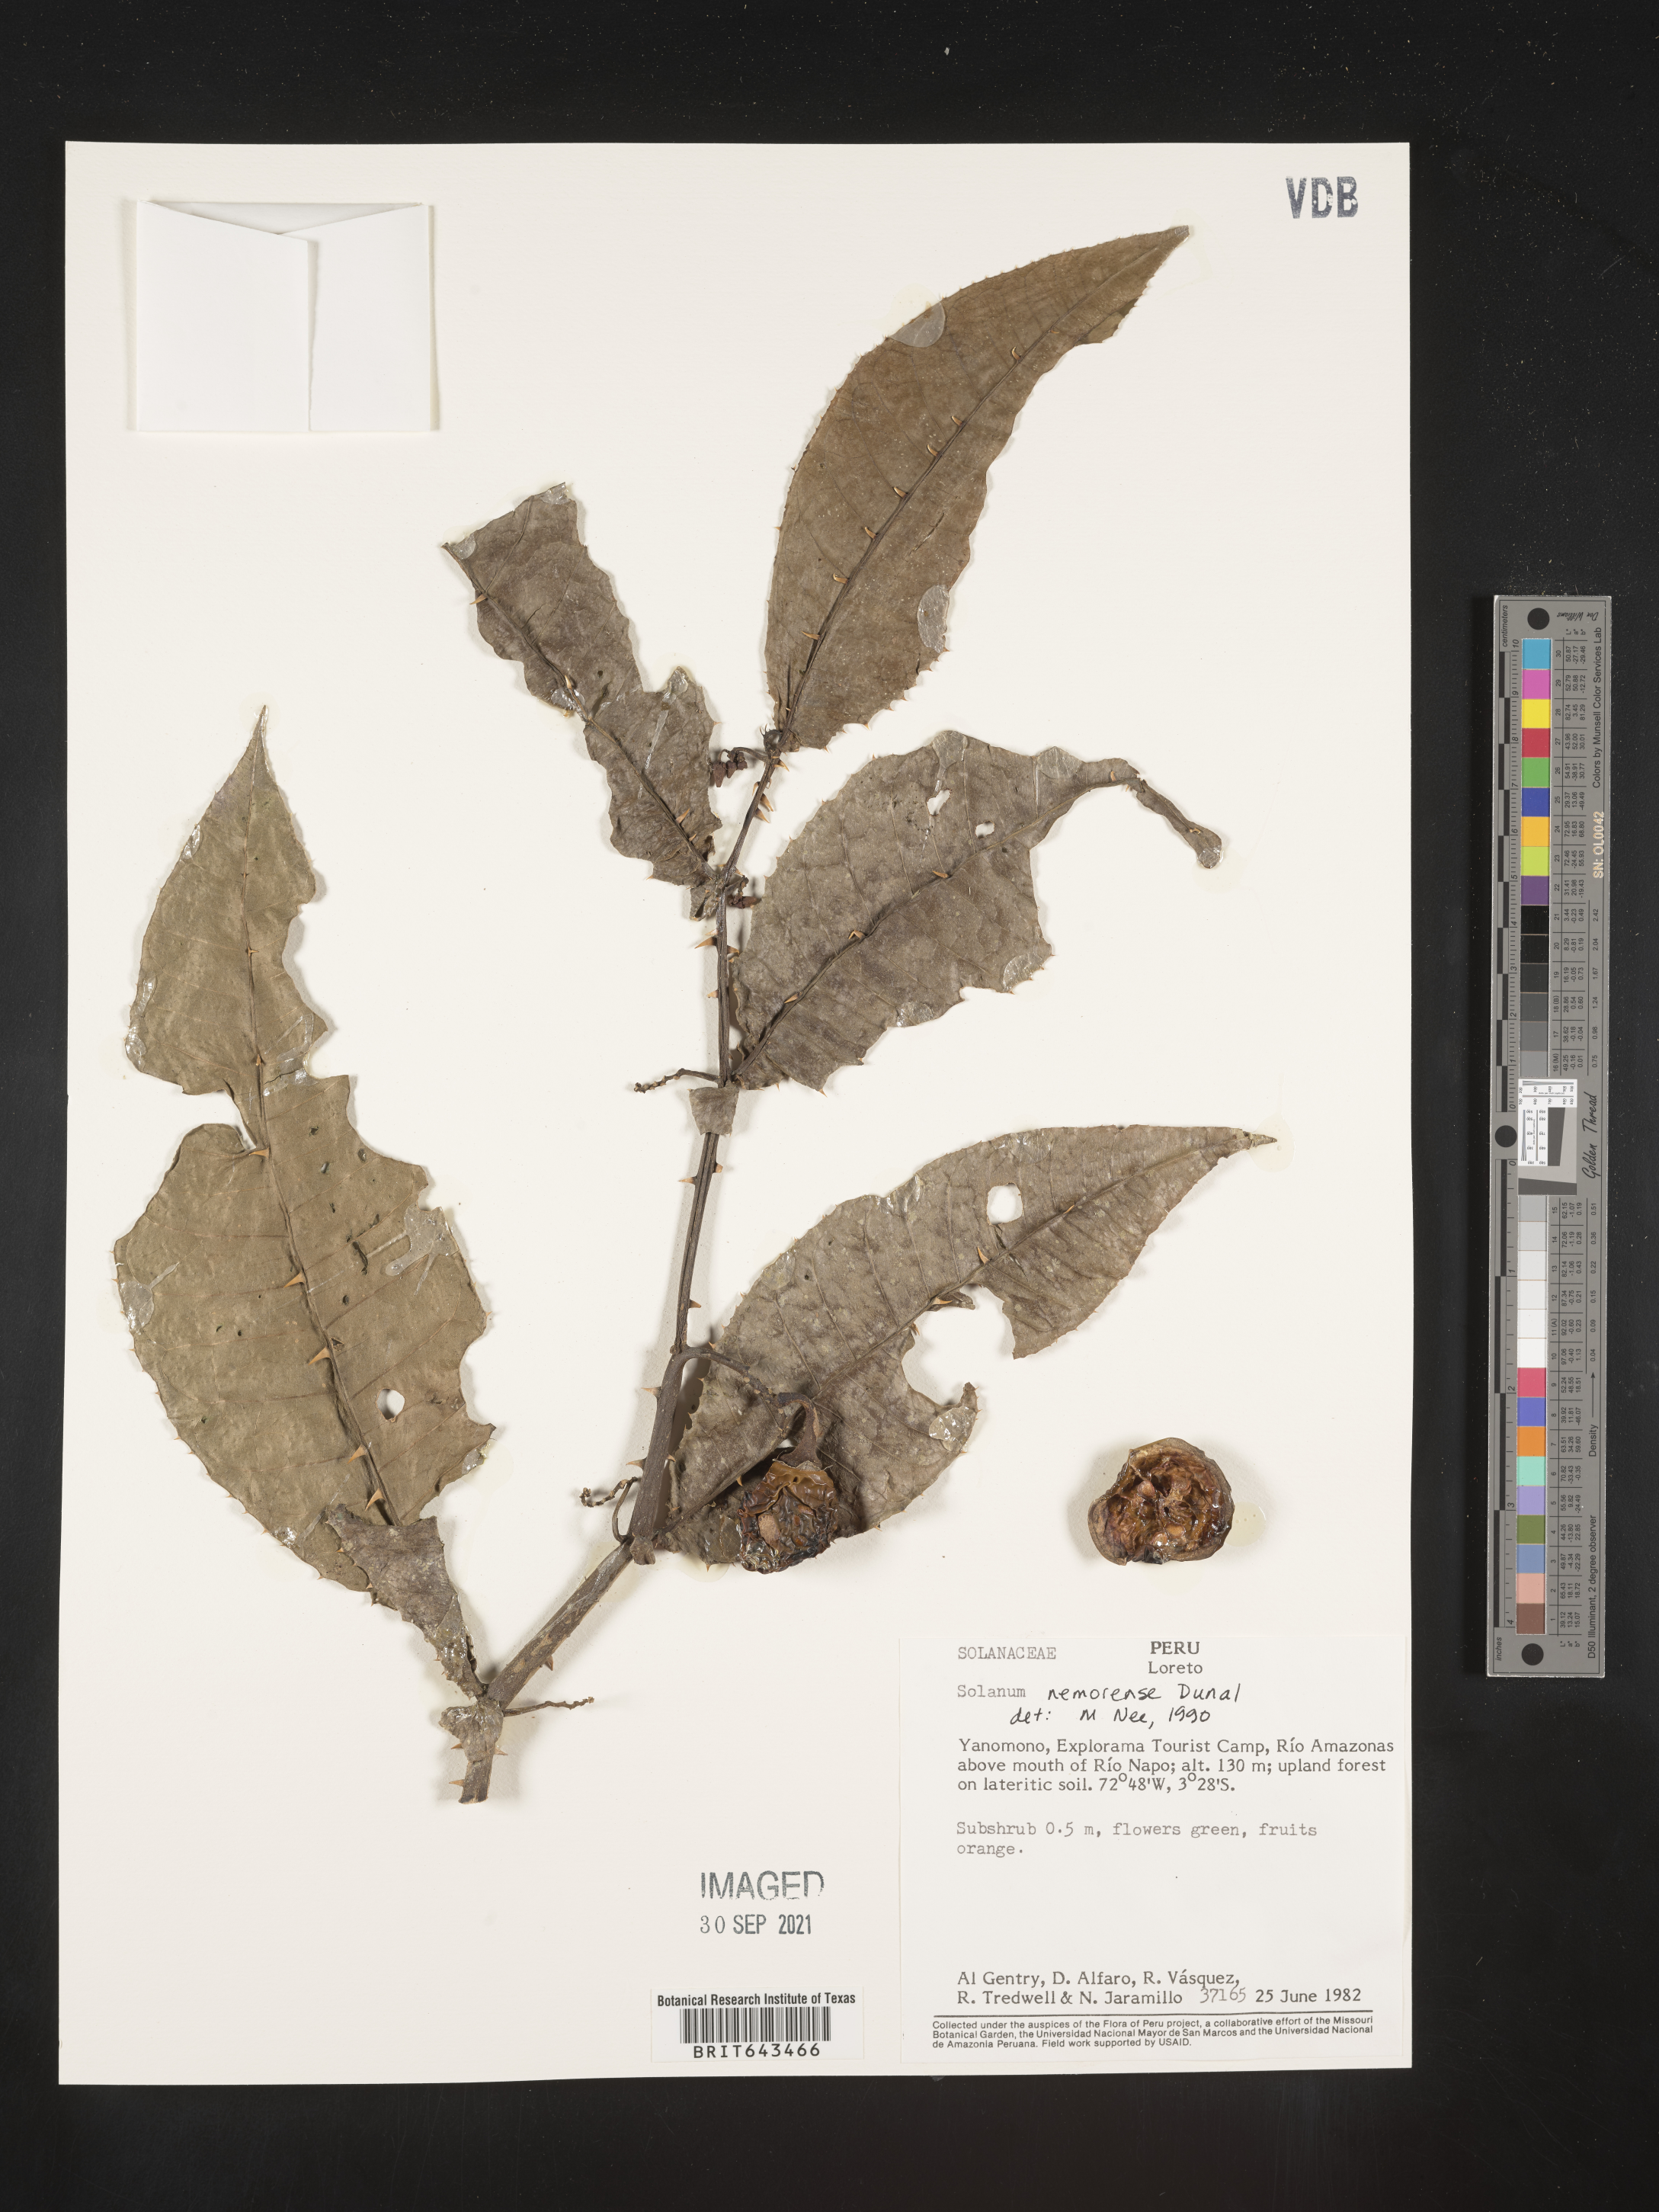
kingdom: Plantae
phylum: Tracheophyta
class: Magnoliopsida
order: Solanales
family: Solanaceae
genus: Solanum
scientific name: Solanum
